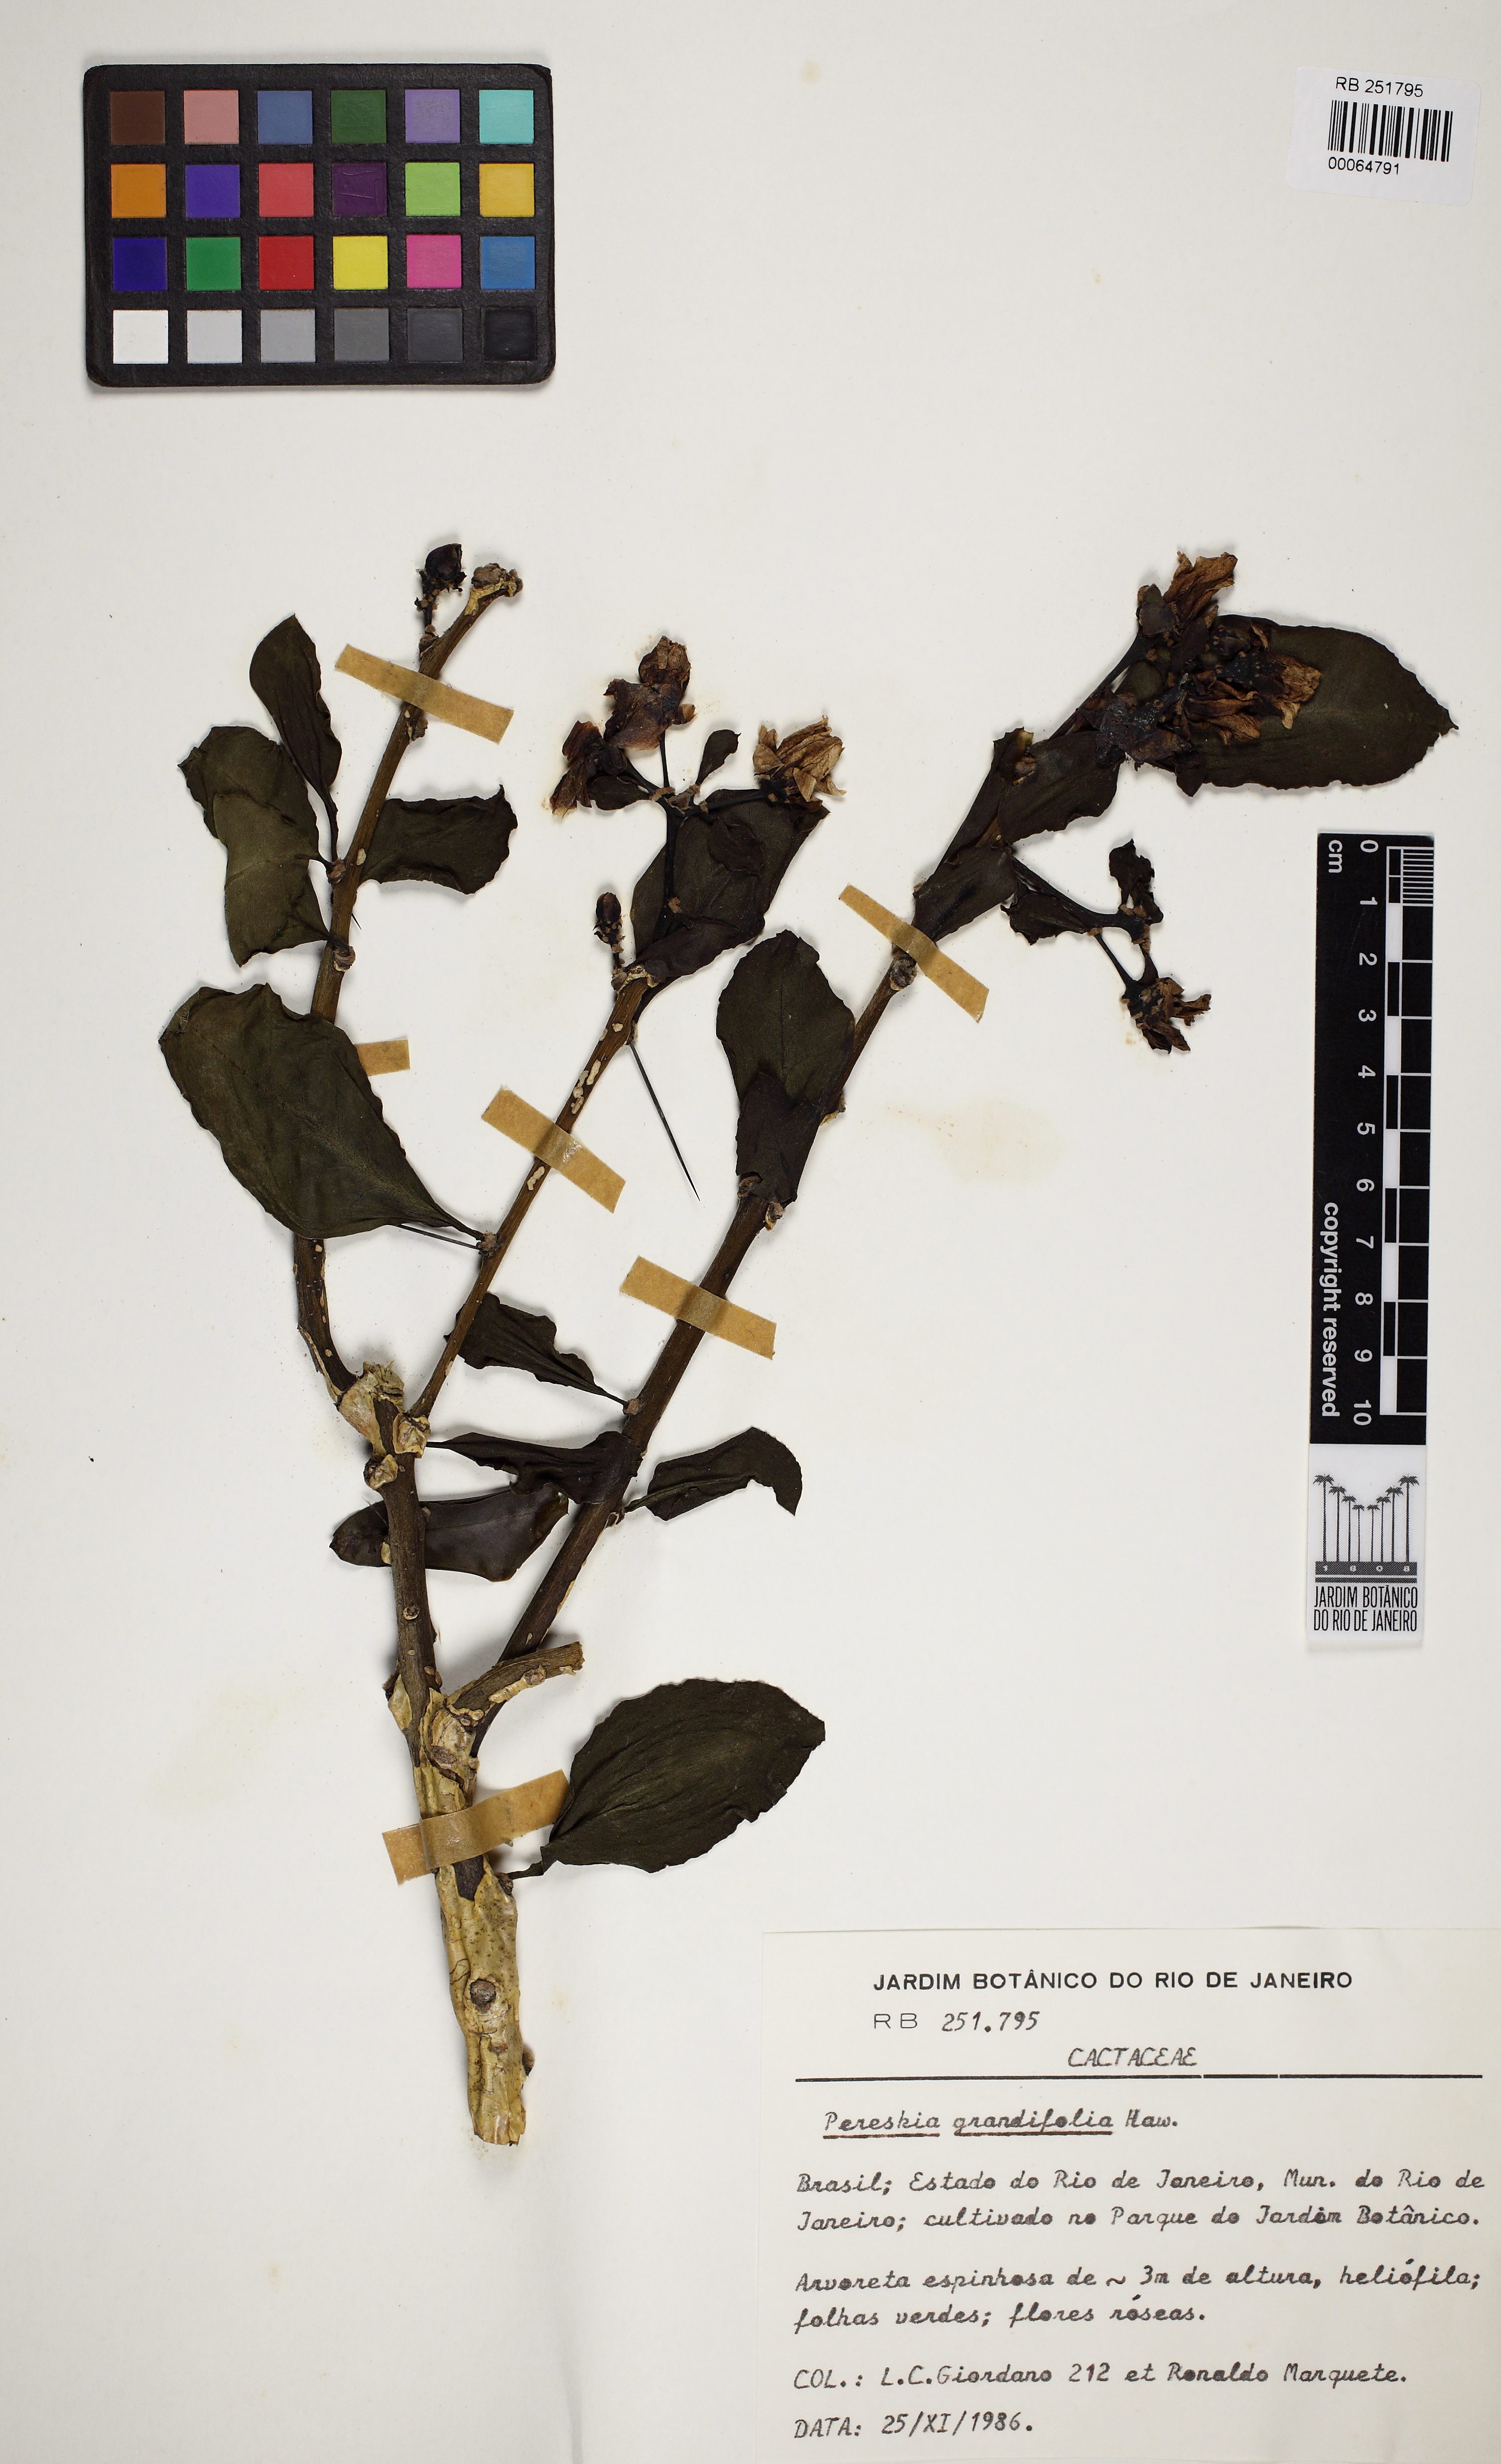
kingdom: Plantae
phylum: Tracheophyta
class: Magnoliopsida
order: Caryophyllales
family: Cactaceae
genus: Pereskia
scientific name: Pereskia grandifolia
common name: Rose cactus
